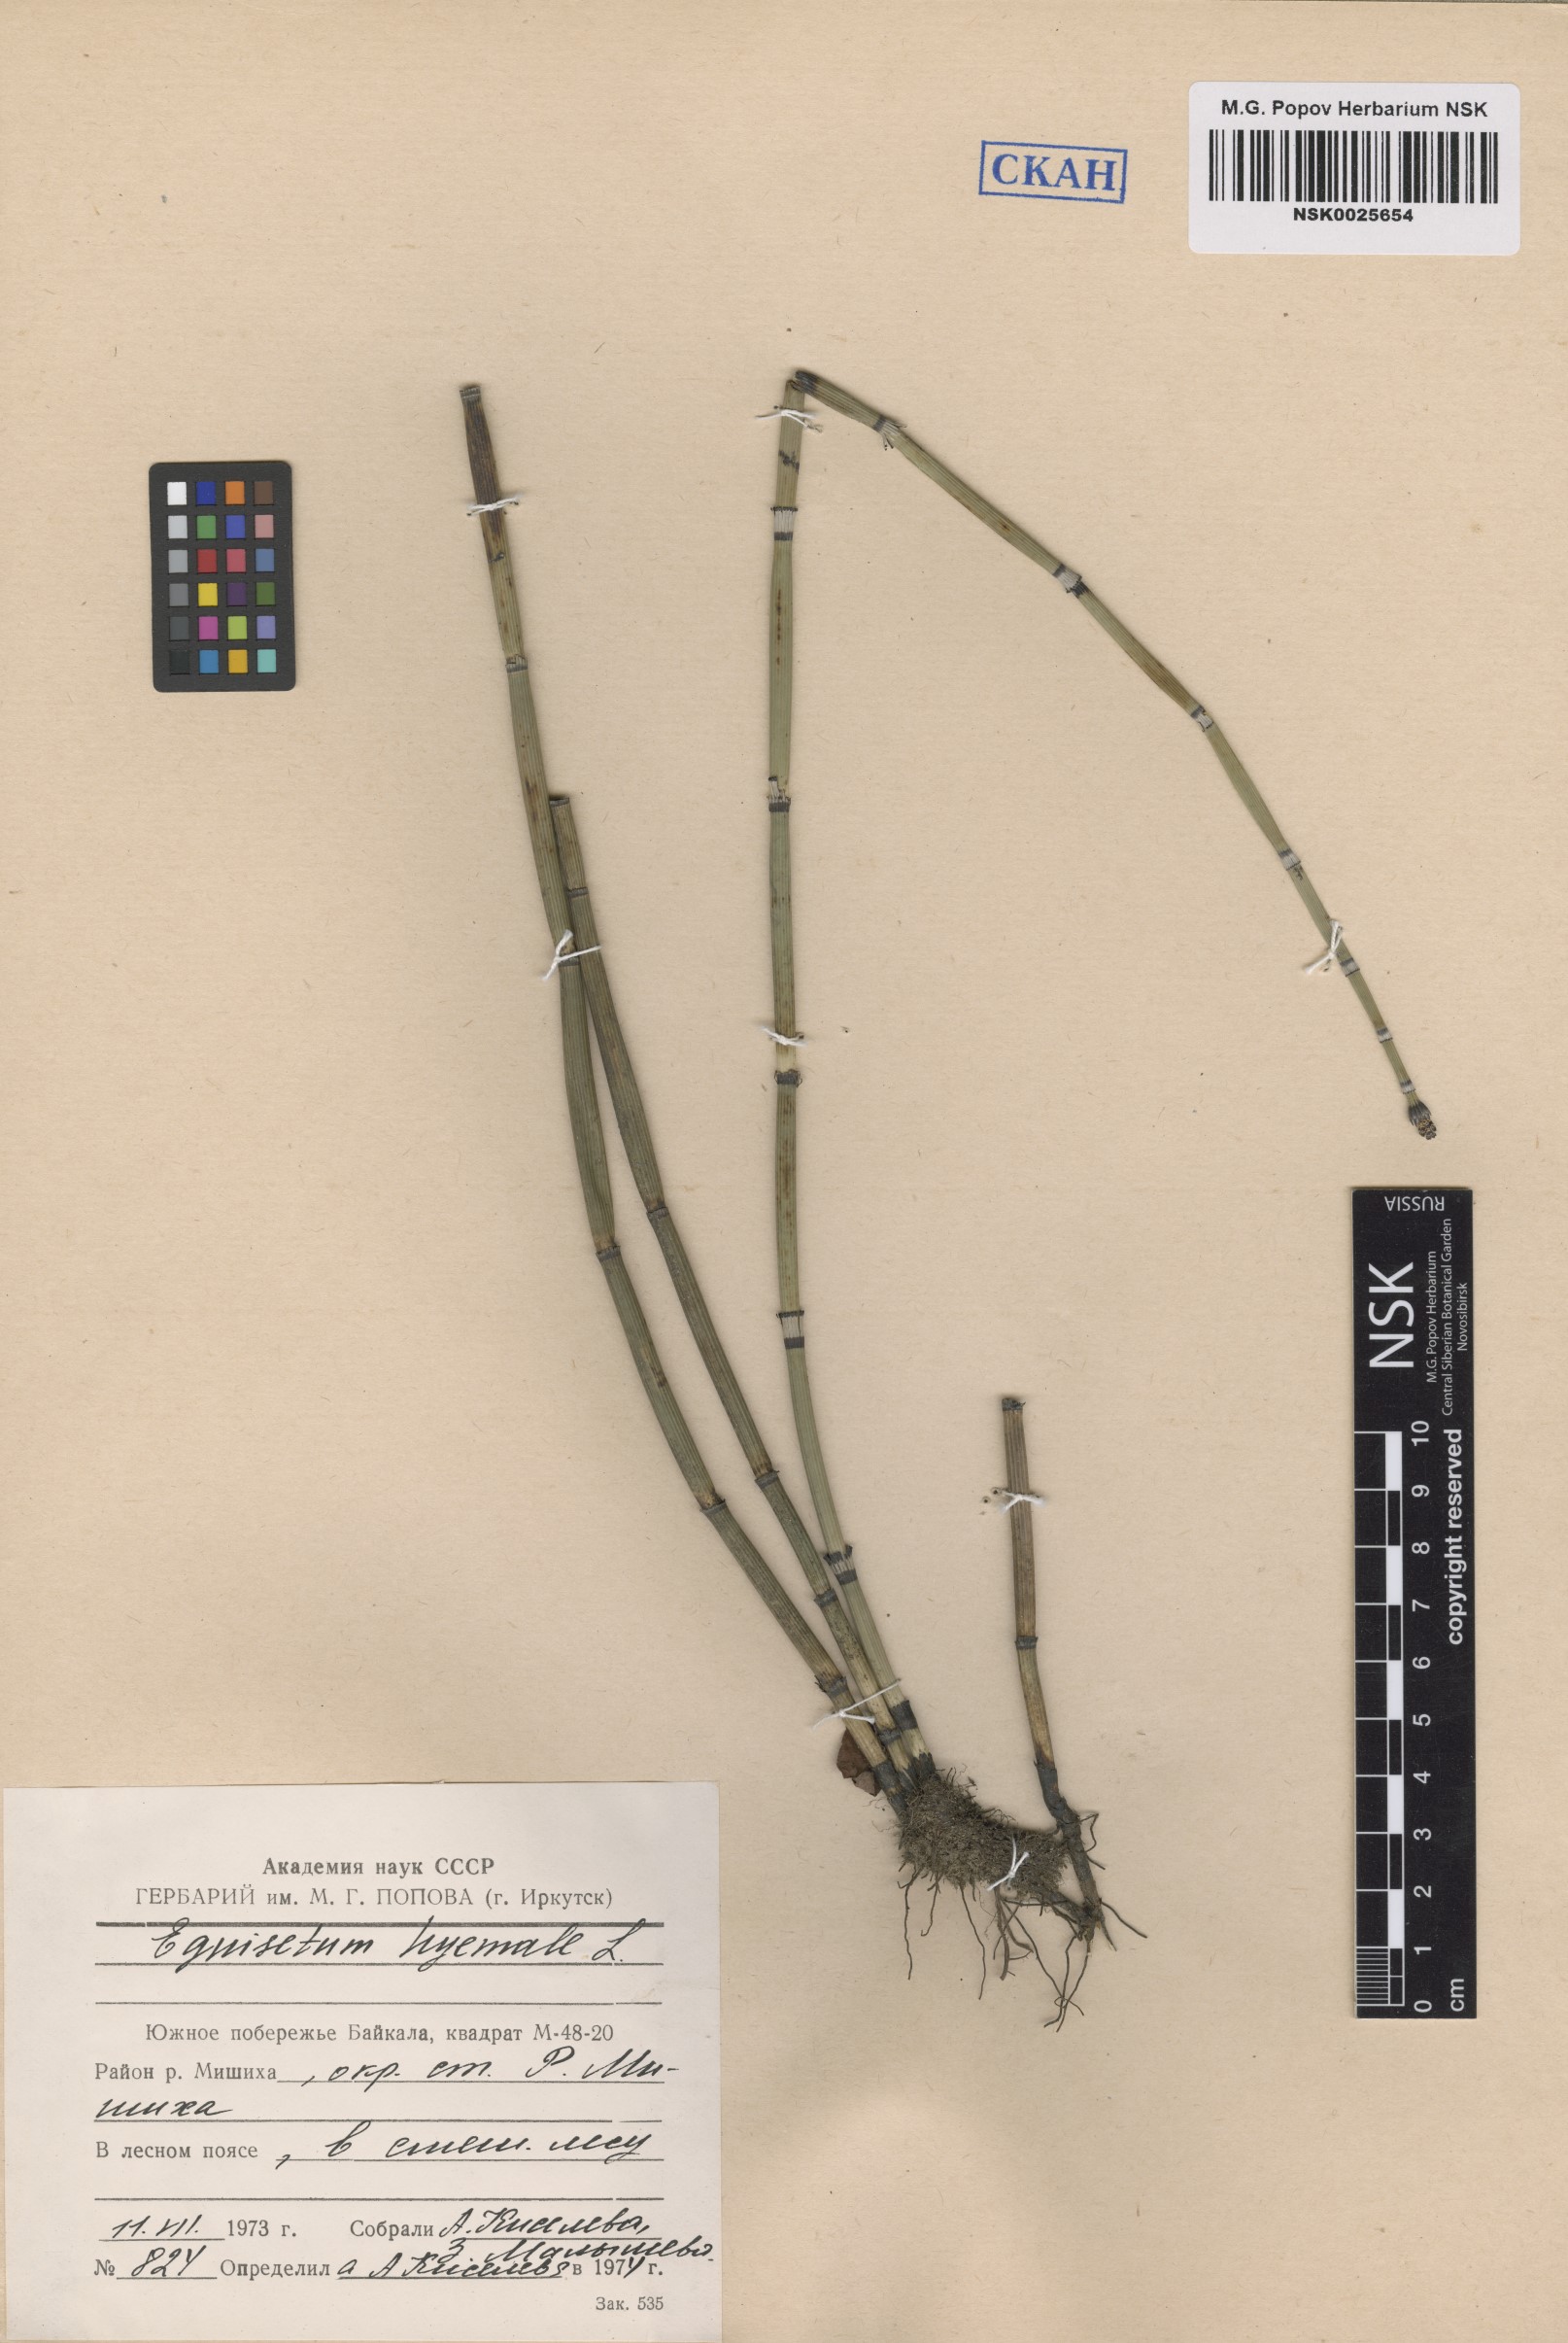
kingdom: Plantae
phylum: Tracheophyta
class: Polypodiopsida
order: Equisetales
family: Equisetaceae
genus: Equisetum
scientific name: Equisetum hyemale
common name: Rough horsetail
